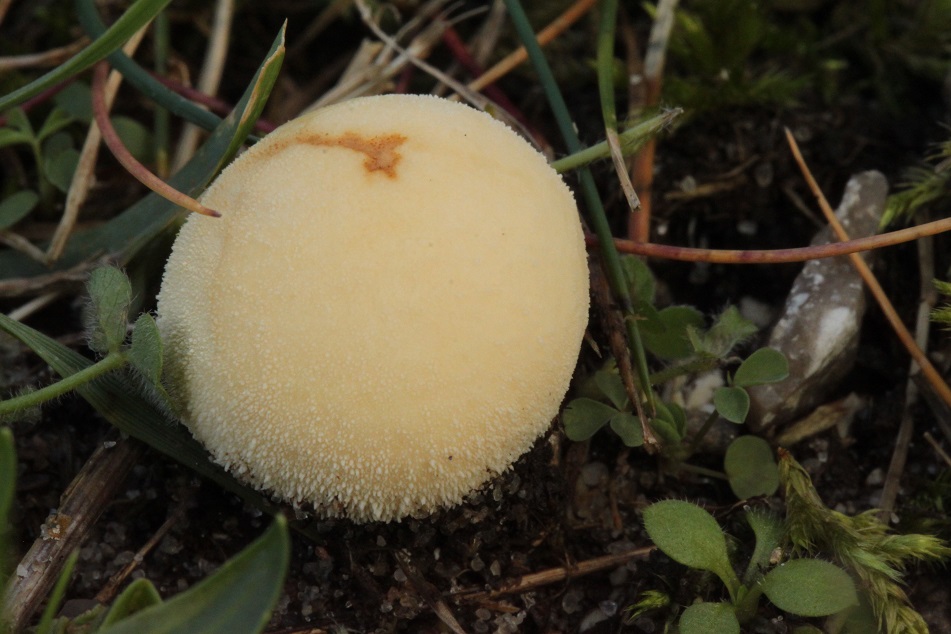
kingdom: Fungi
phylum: Basidiomycota
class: Agaricomycetes
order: Agaricales
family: Lycoperdaceae
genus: Lycoperdon
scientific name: Lycoperdon pratense
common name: flad støvbold
